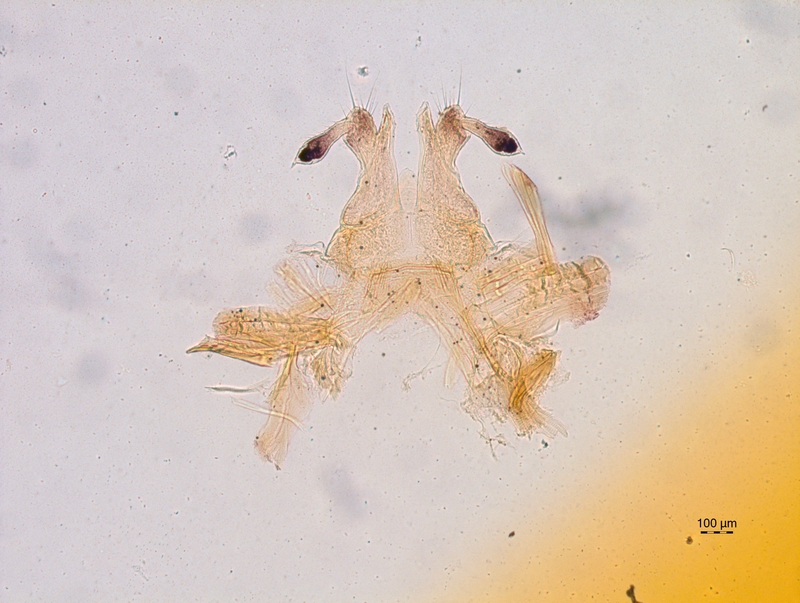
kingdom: Animalia
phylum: Arthropoda
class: Diplopoda
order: Chordeumatida
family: Chordeumatidae
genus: Chordeuma
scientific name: Chordeuma sylvestre
